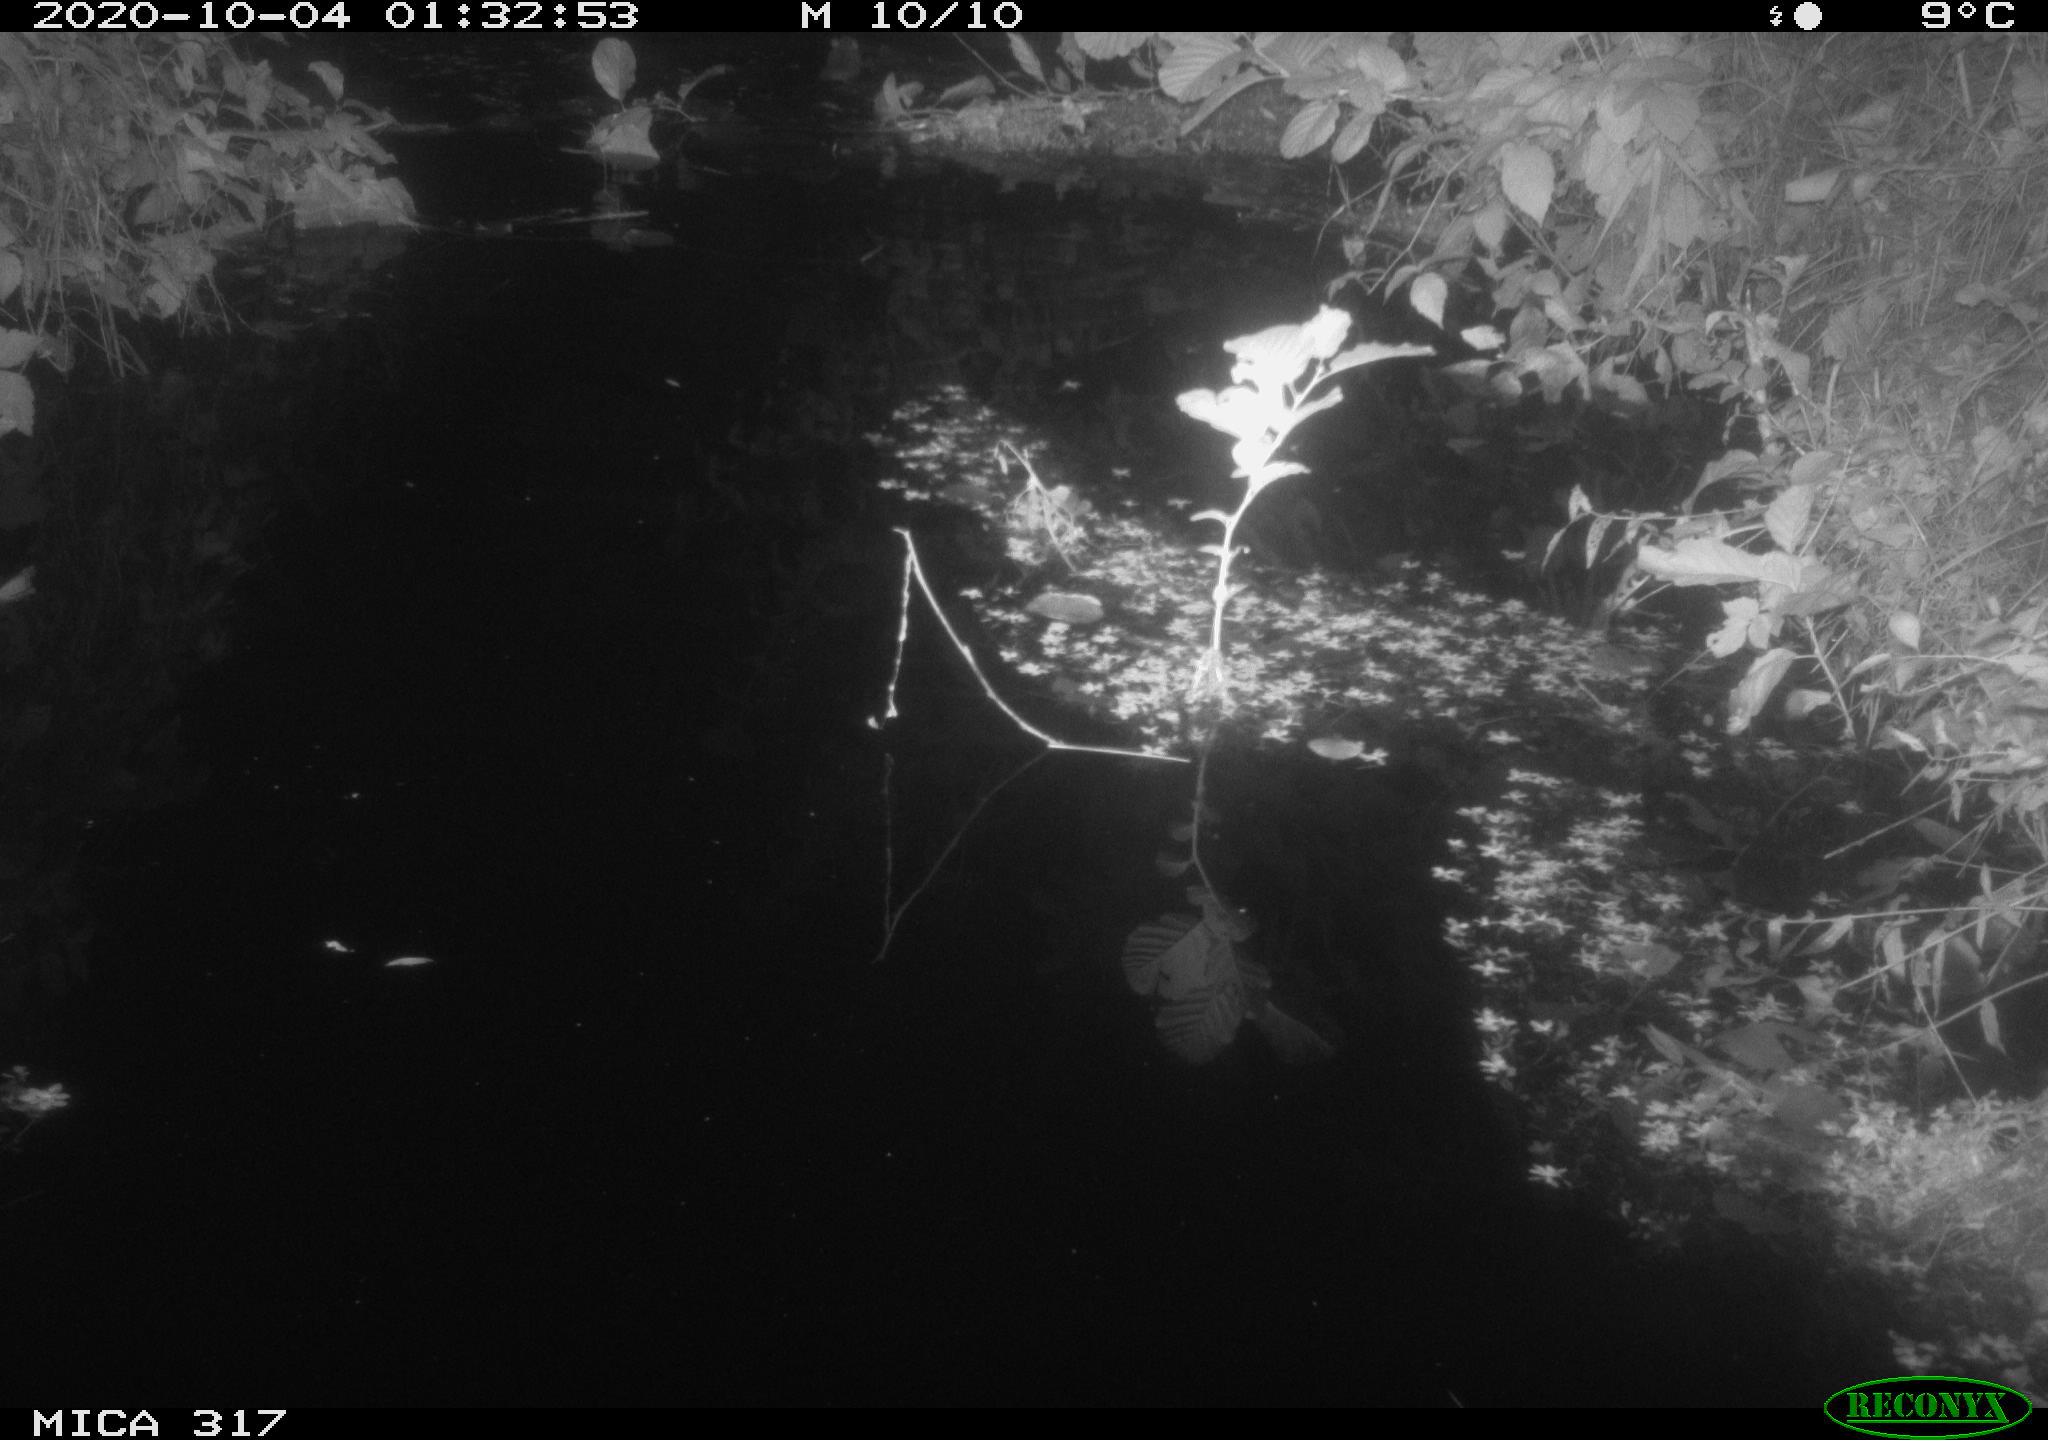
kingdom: Animalia
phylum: Chordata
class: Mammalia
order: Rodentia
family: Muridae
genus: Rattus
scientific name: Rattus norvegicus
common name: Brown rat
